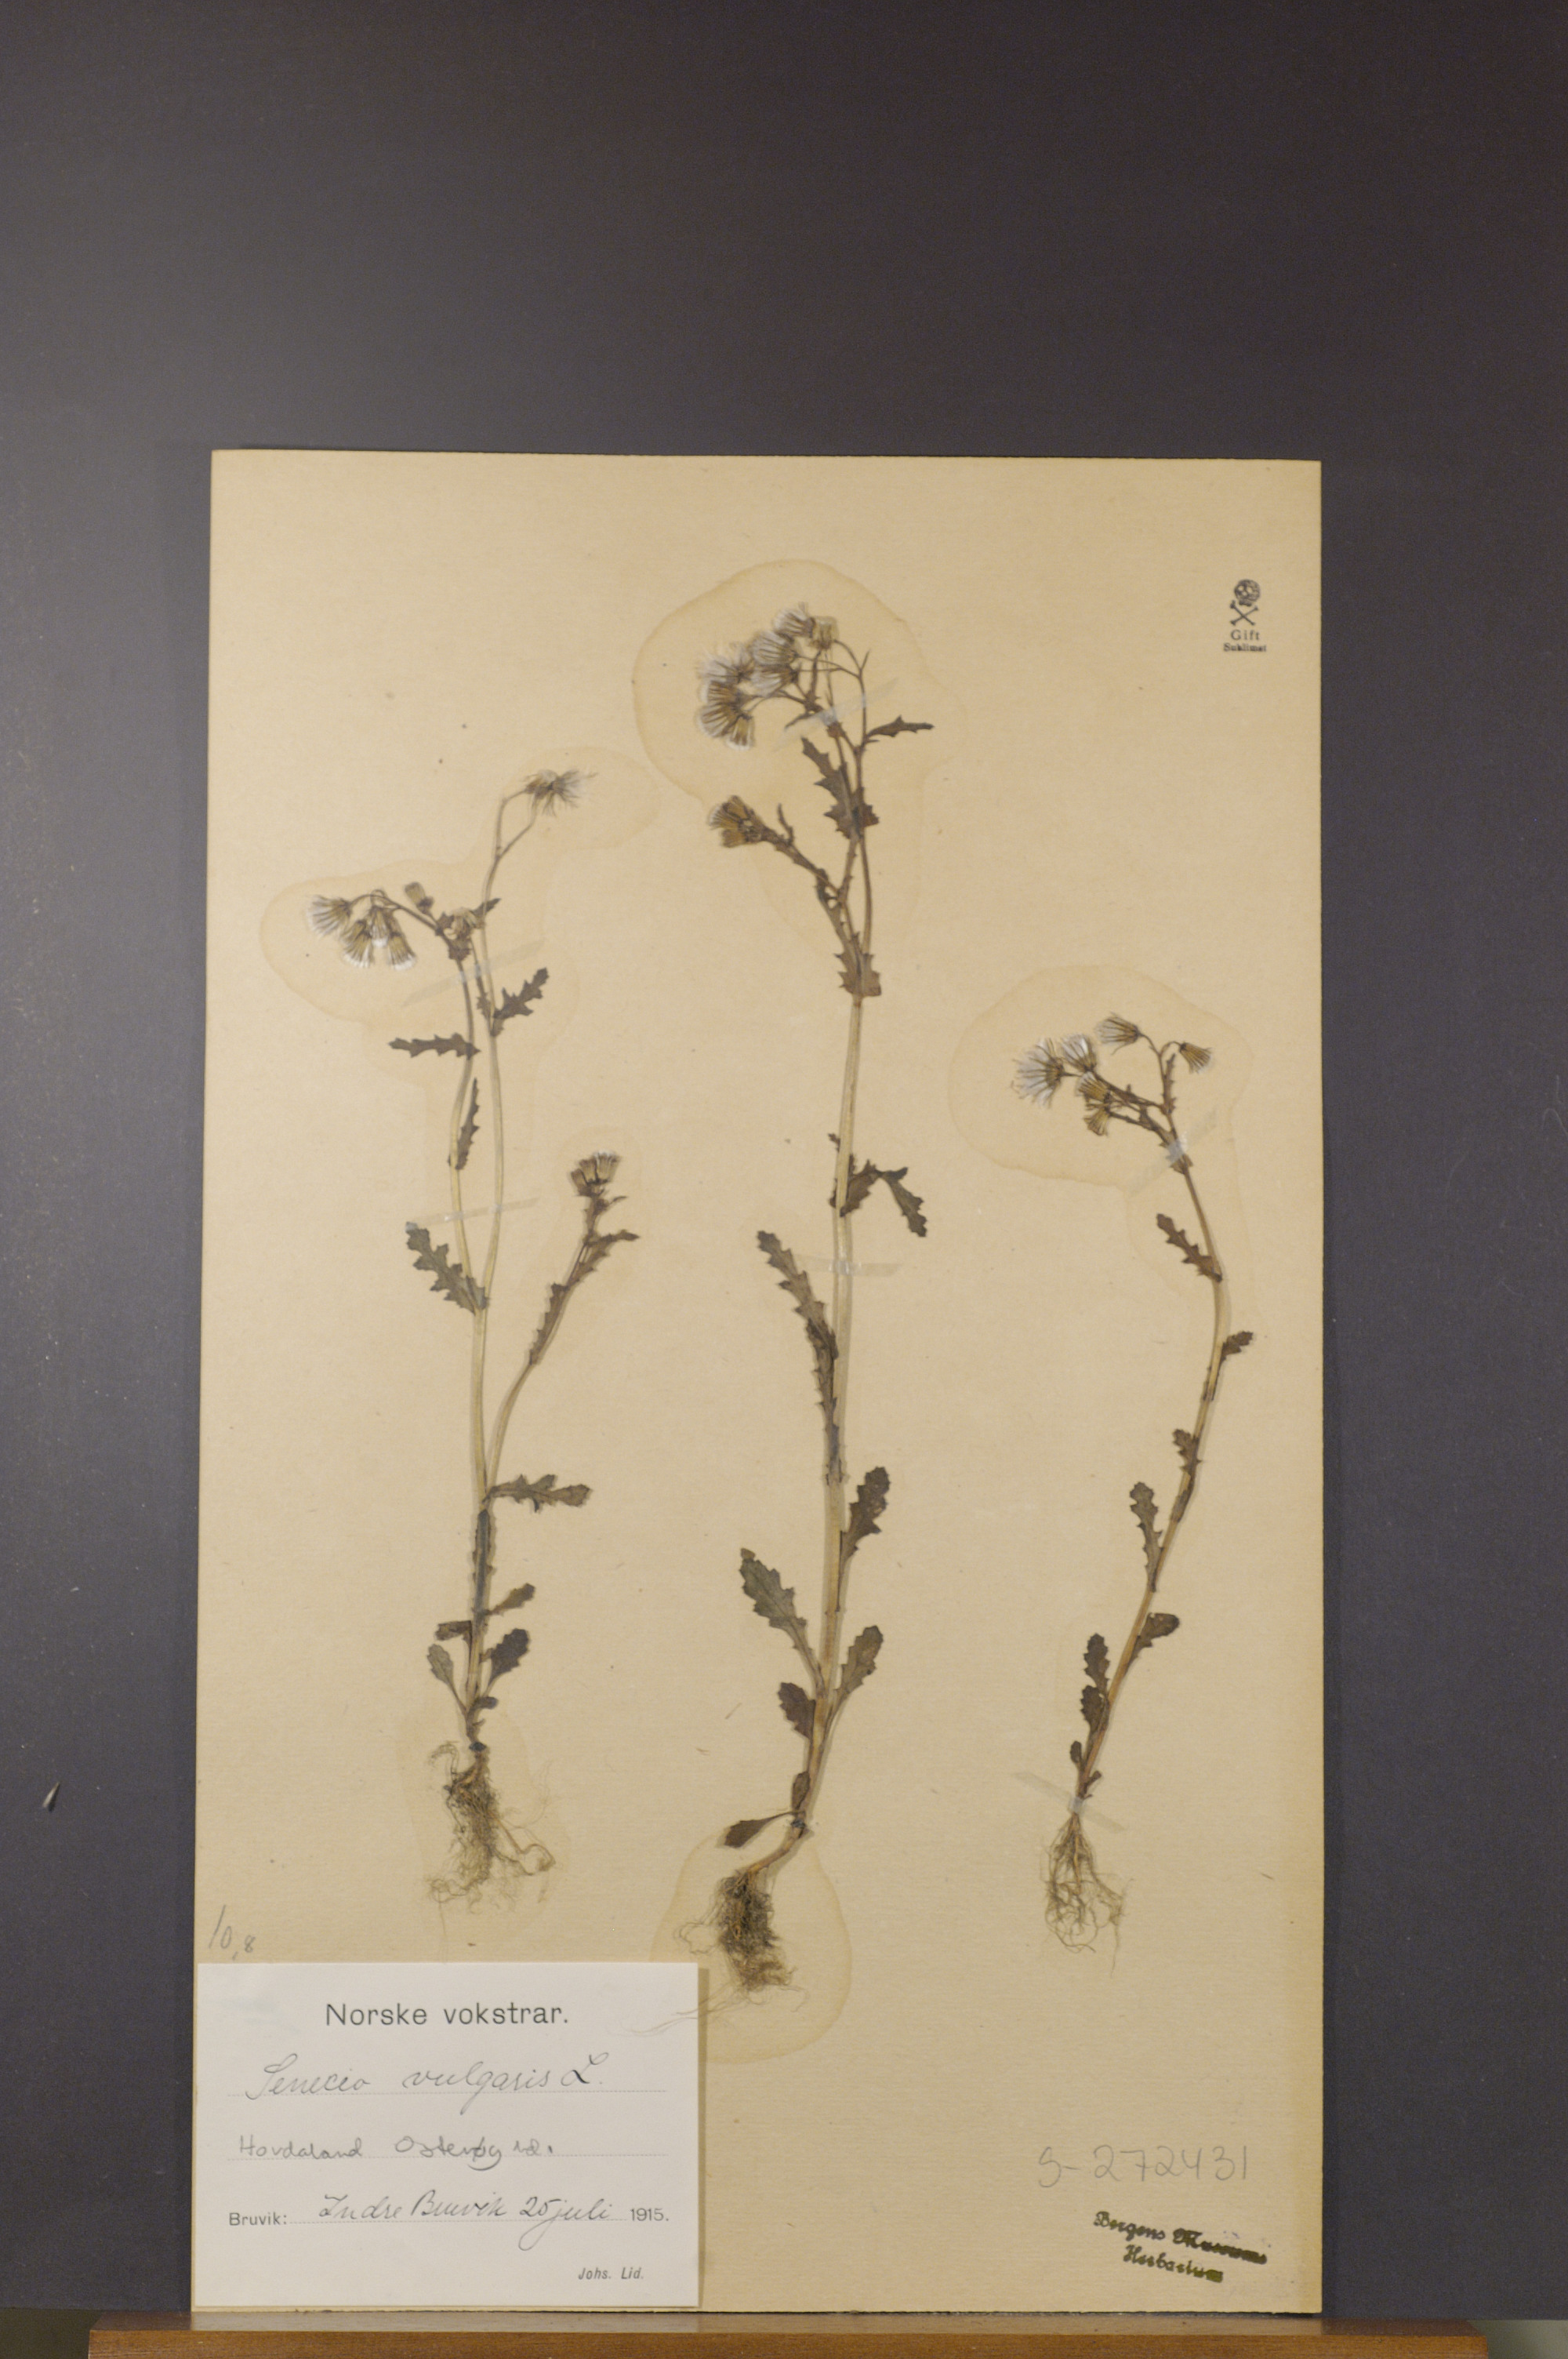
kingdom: Plantae
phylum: Tracheophyta
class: Magnoliopsida
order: Asterales
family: Asteraceae
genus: Senecio
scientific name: Senecio vulgaris
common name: Old-man-in-the-spring
